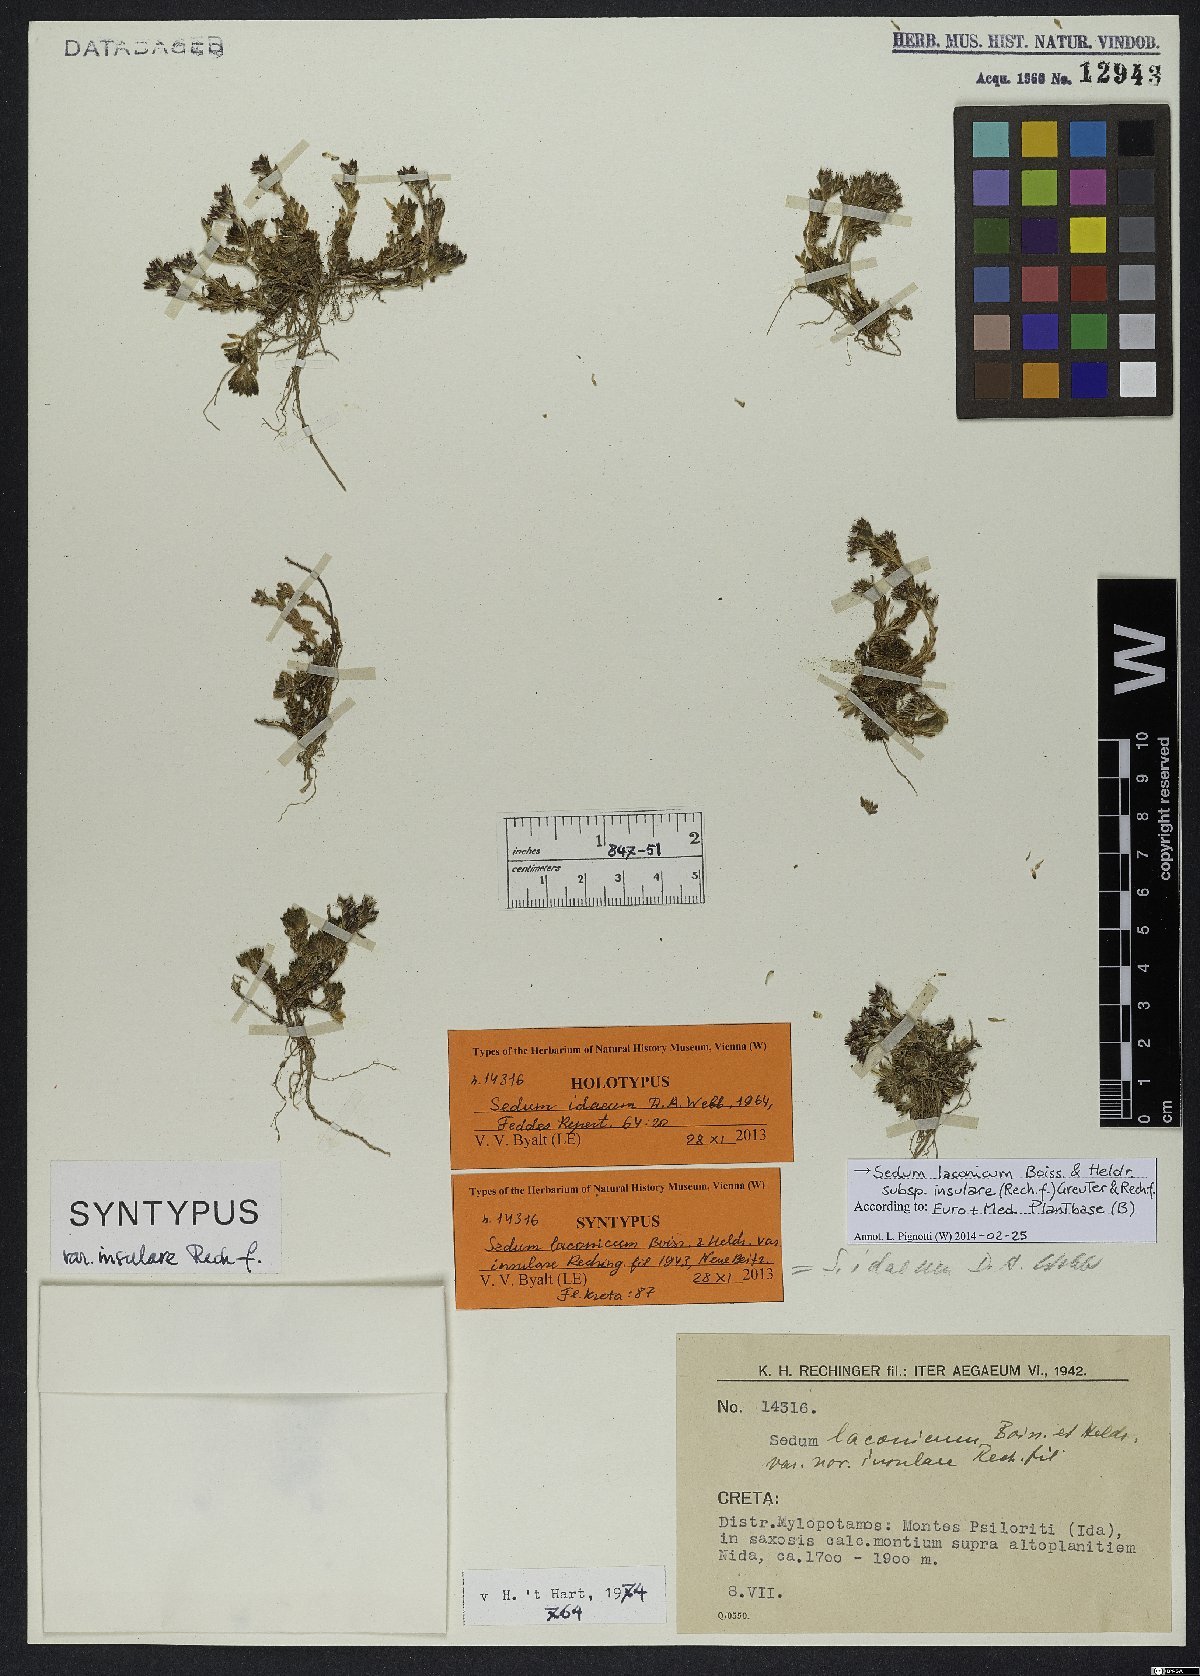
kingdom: Plantae
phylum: Tracheophyta
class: Magnoliopsida
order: Saxifragales
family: Crassulaceae
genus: Sedum
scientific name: Sedum laconicum
